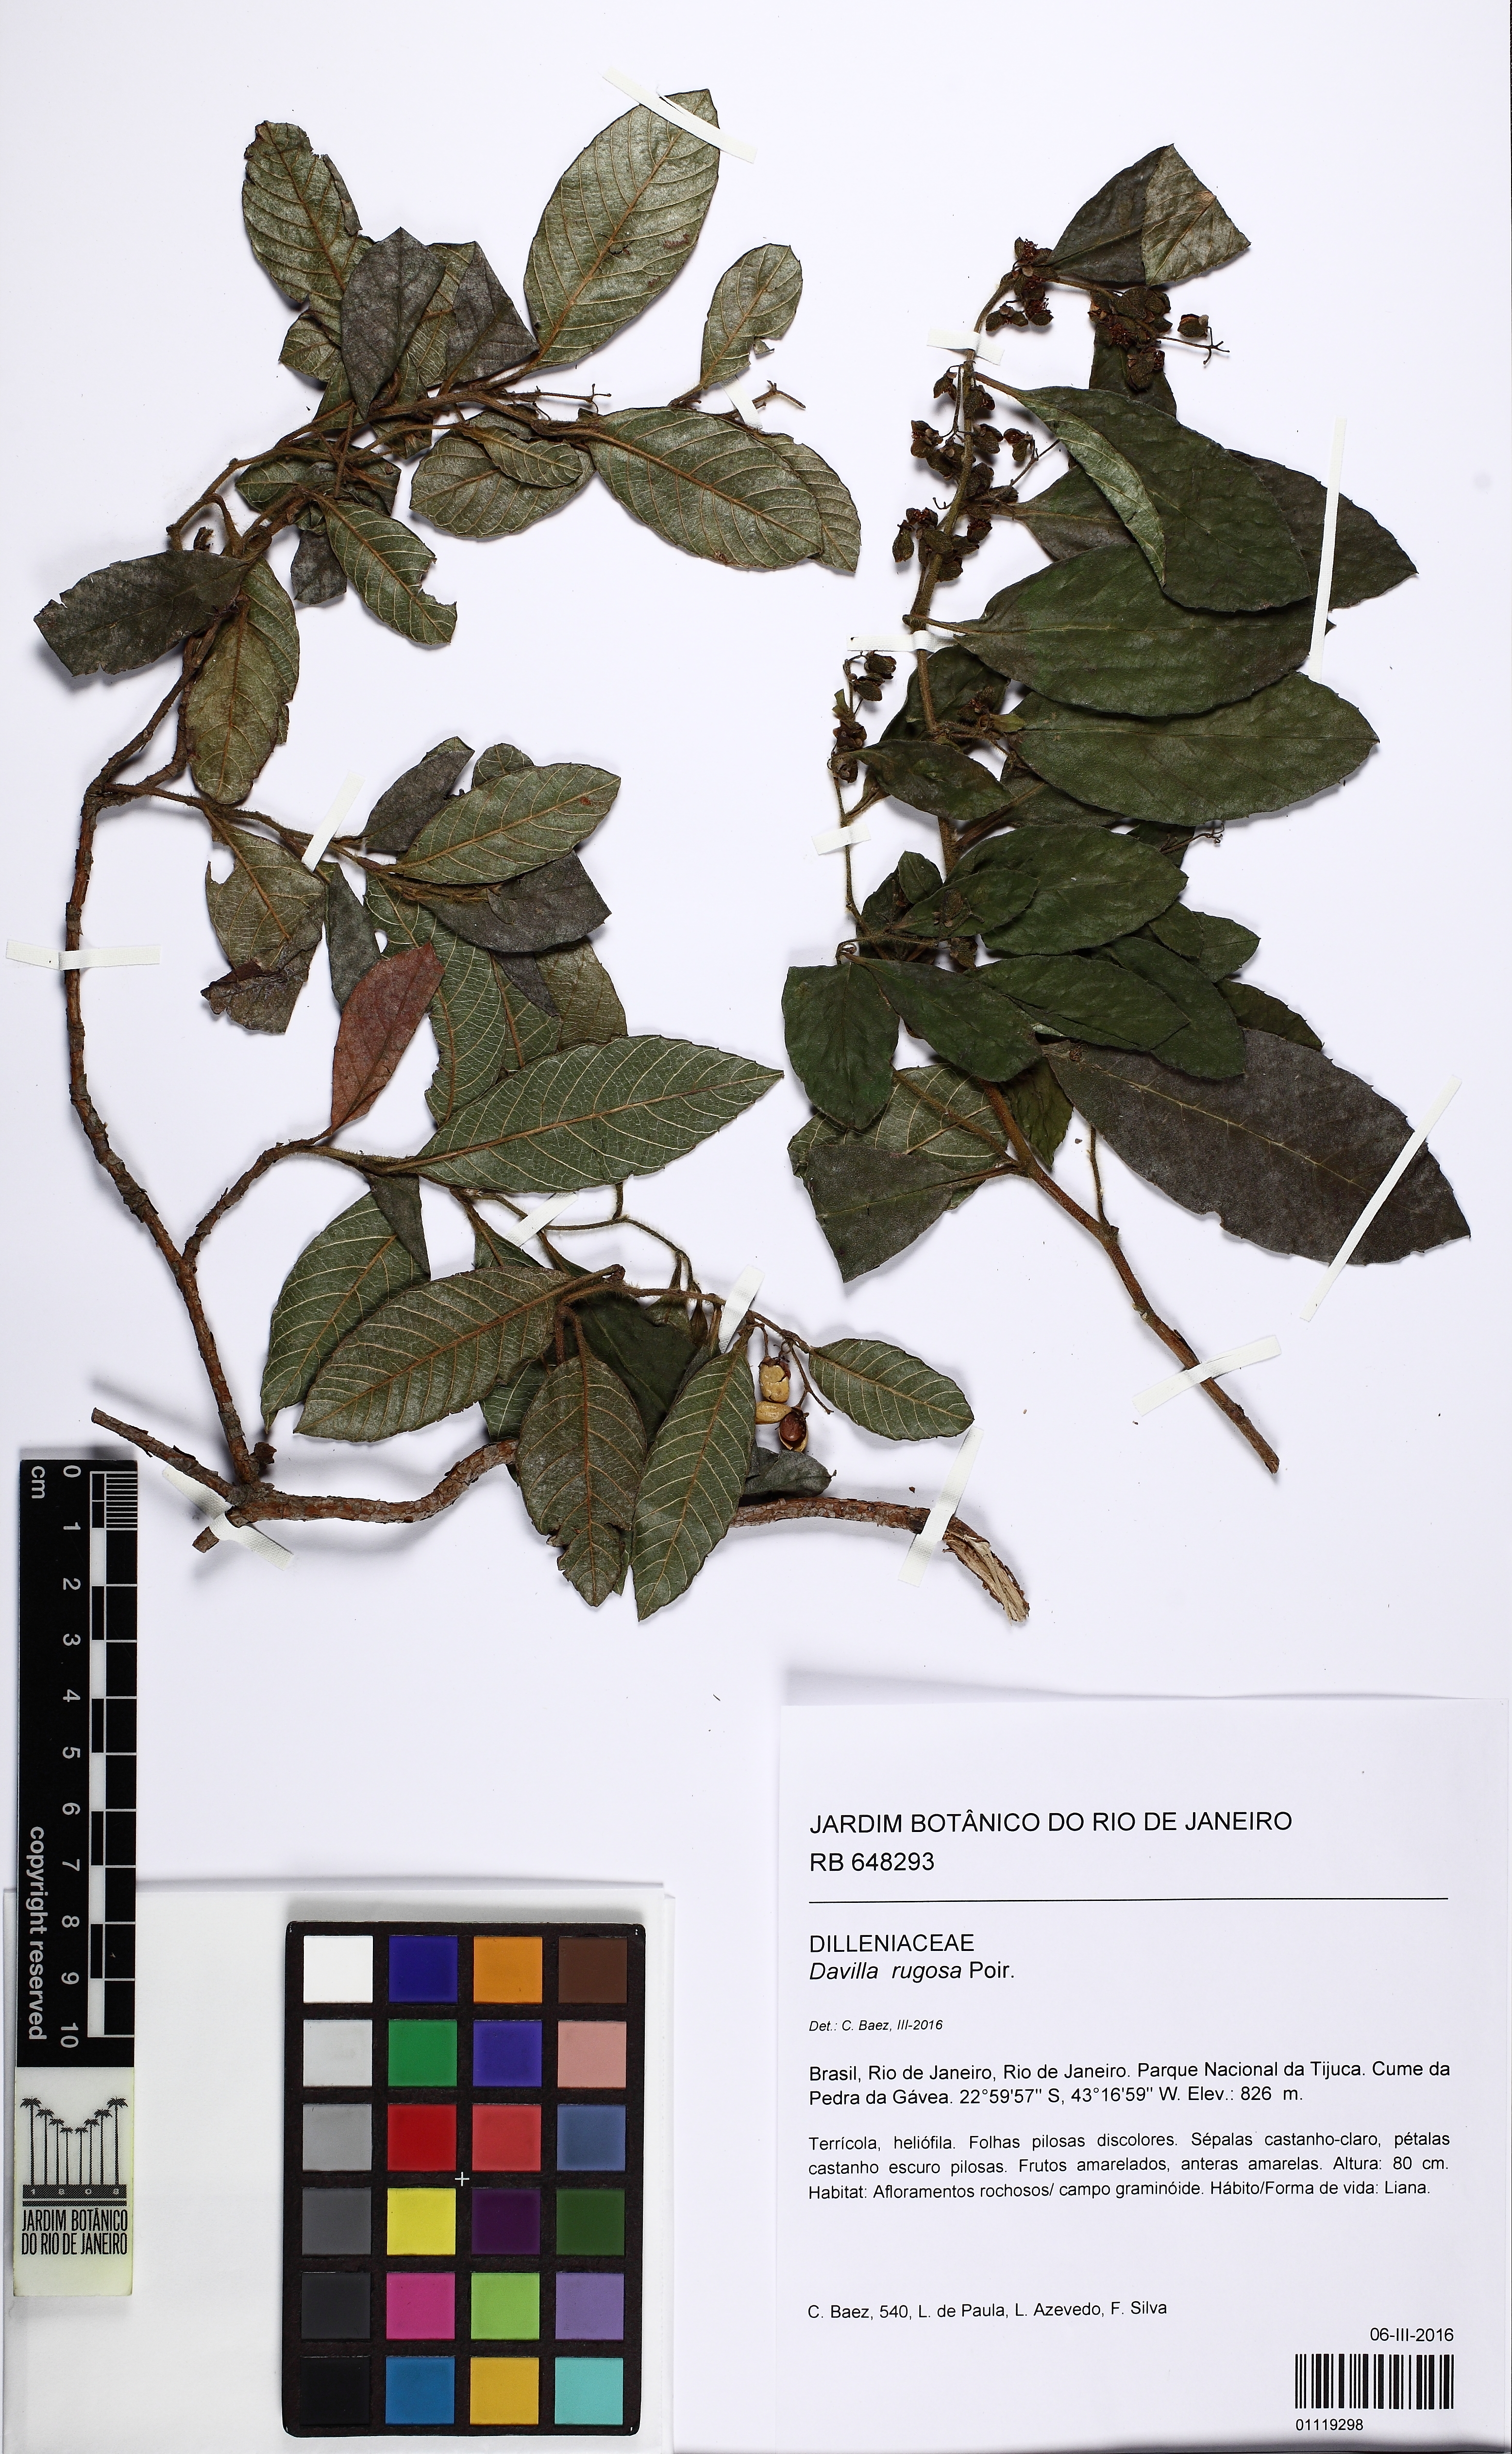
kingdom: Plantae
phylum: Tracheophyta
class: Magnoliopsida
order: Dilleniales
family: Dilleniaceae
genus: Davilla
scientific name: Davilla rugosa
